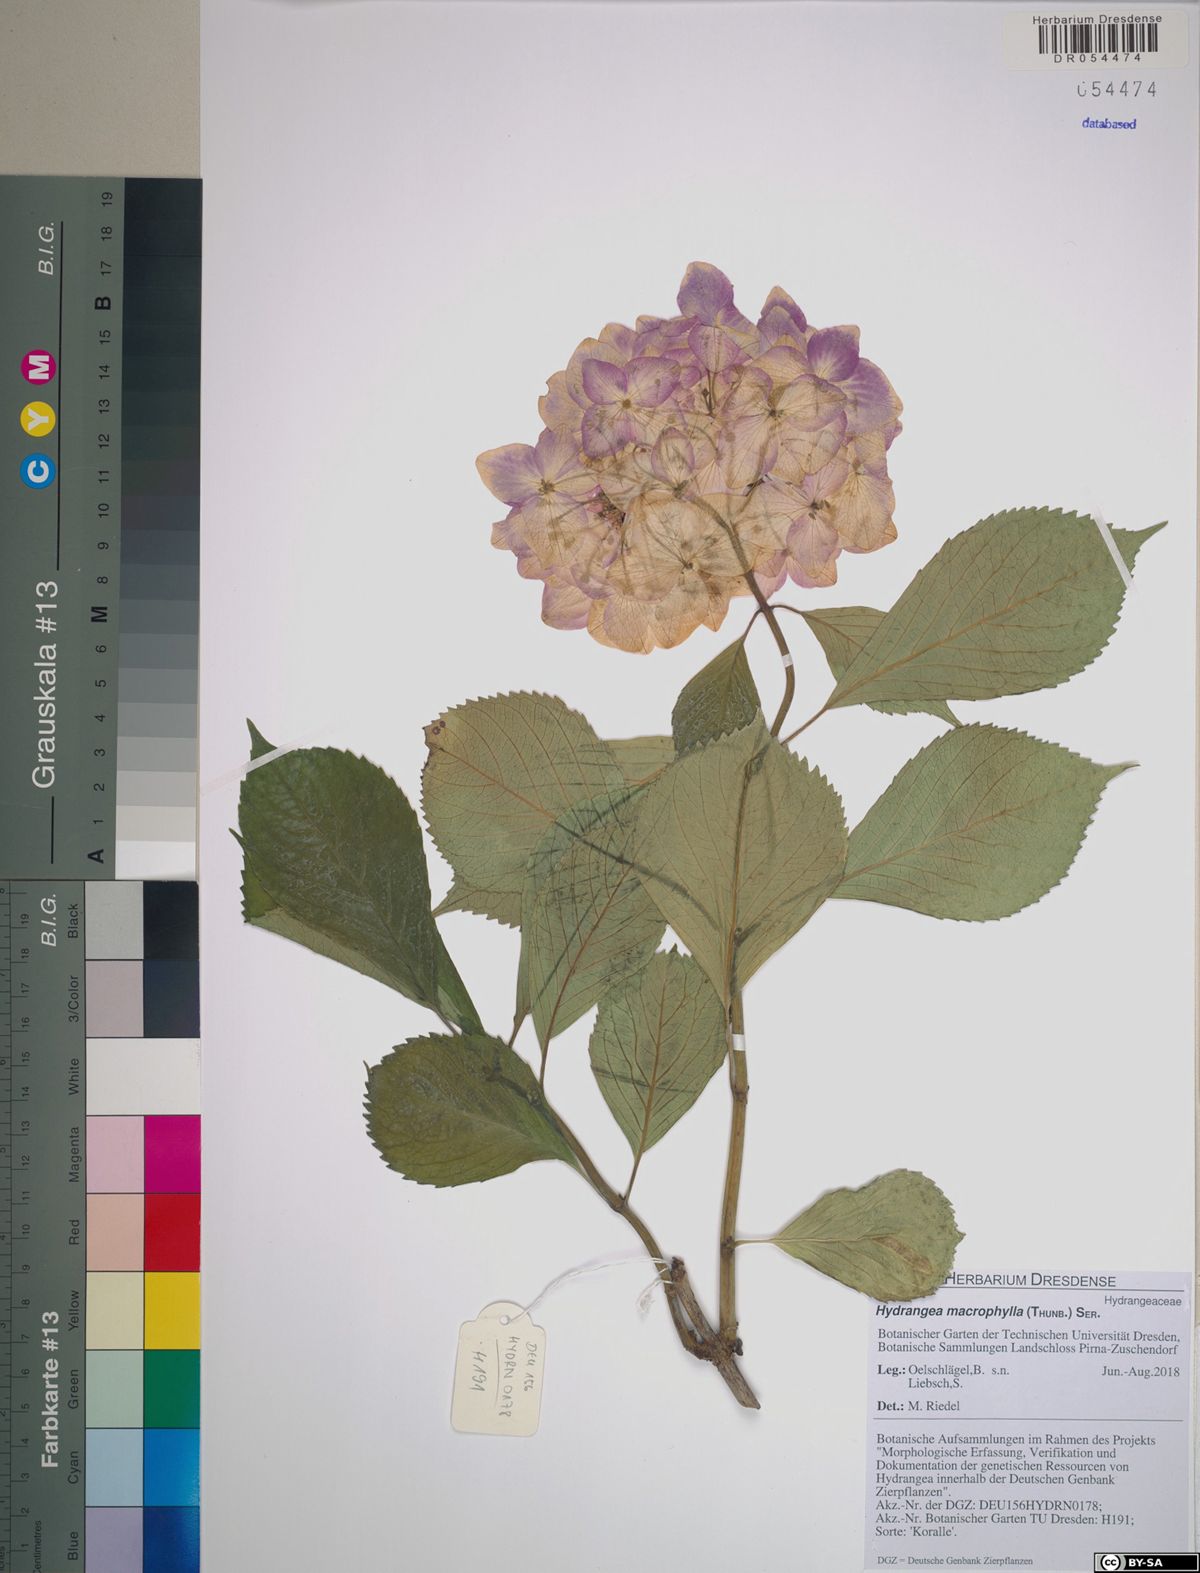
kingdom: Plantae
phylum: Tracheophyta
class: Magnoliopsida
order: Cornales
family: Hydrangeaceae
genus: Hydrangea
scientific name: Hydrangea macrophylla
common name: Hydrangea
